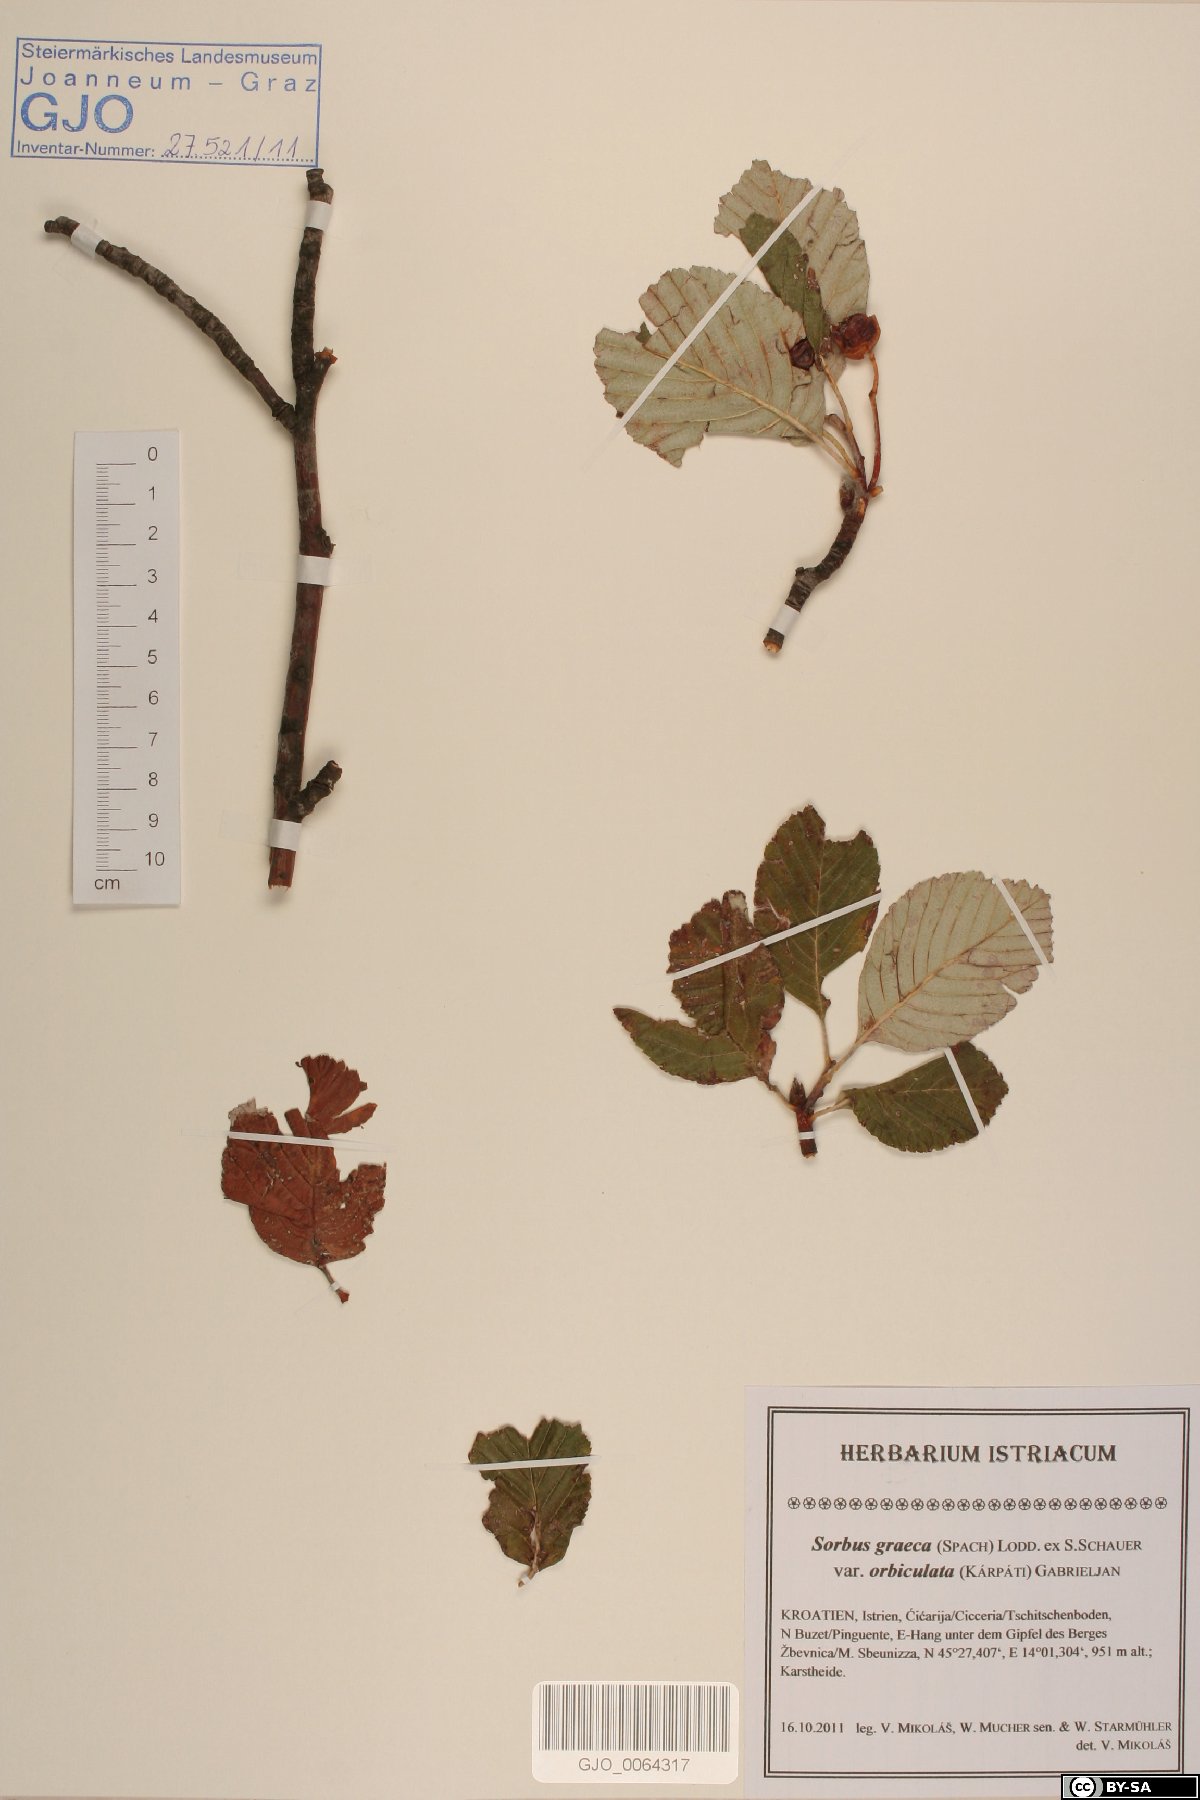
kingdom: Plantae
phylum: Tracheophyta
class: Magnoliopsida
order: Rosales
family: Rosaceae
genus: Aria
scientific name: Aria umbellata
